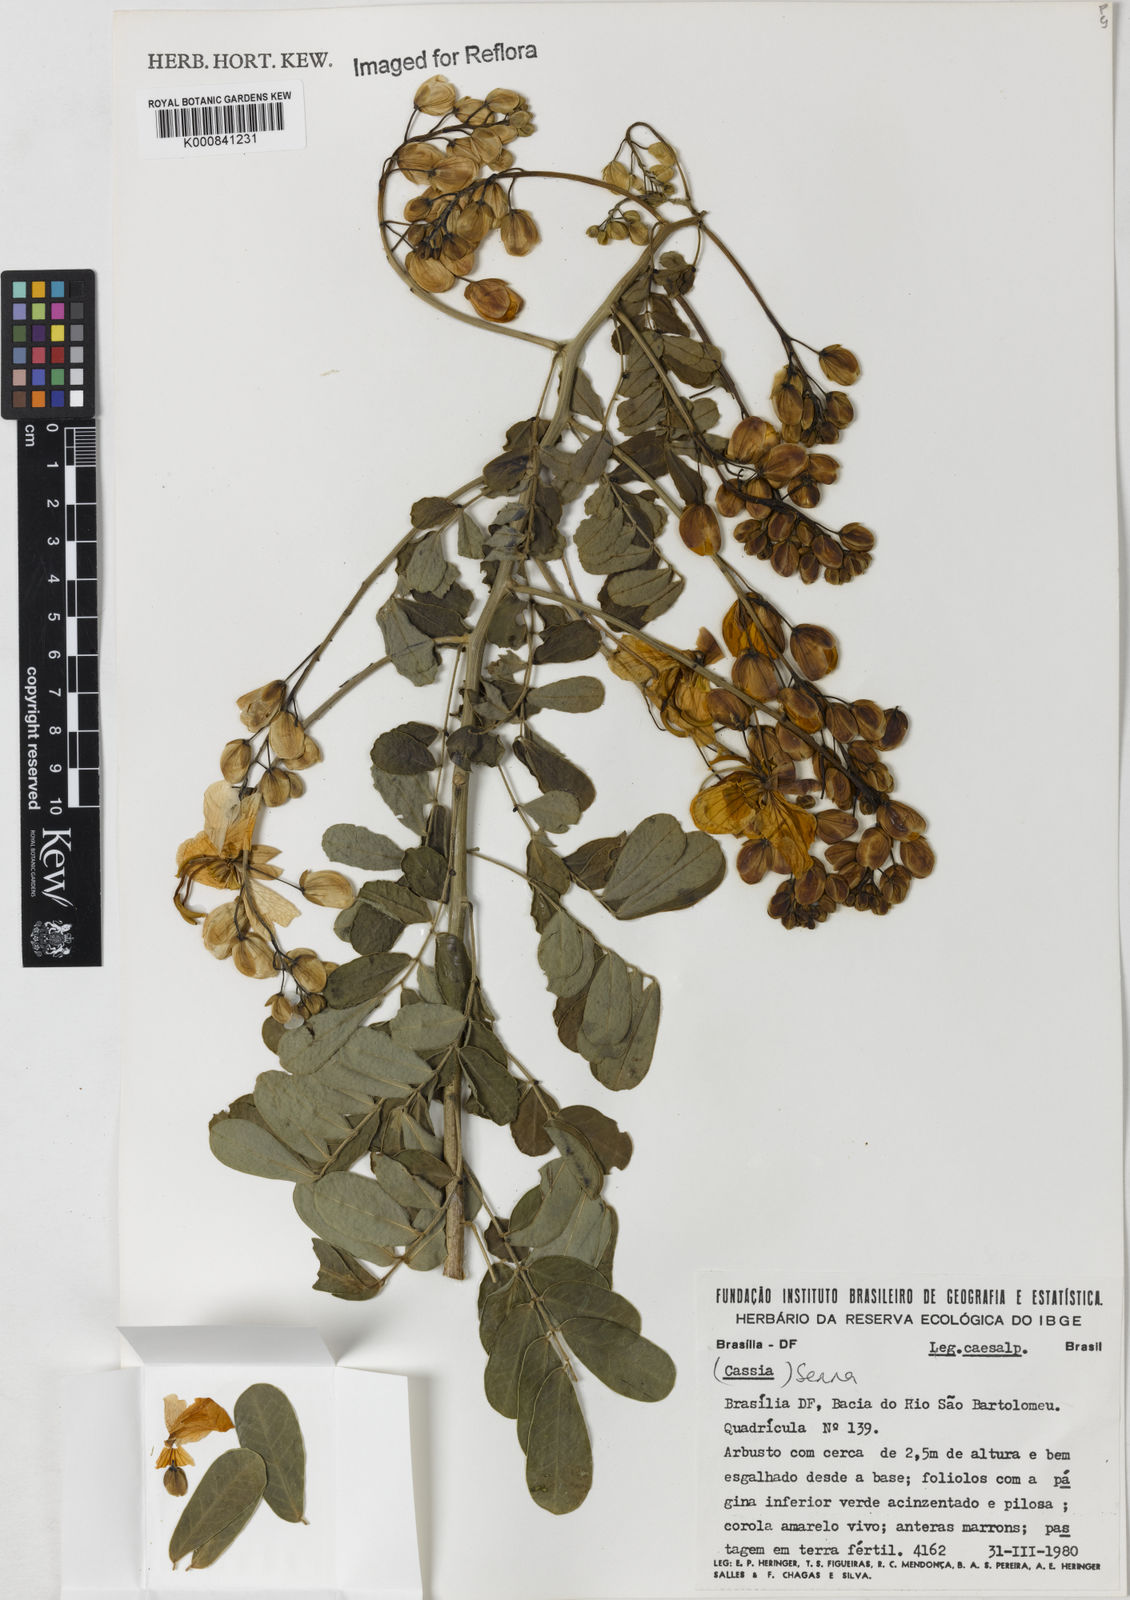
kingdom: Plantae
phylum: Tracheophyta
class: Magnoliopsida
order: Fabales
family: Fabaceae
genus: Senna
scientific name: Senna pendula
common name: Easter cassia
